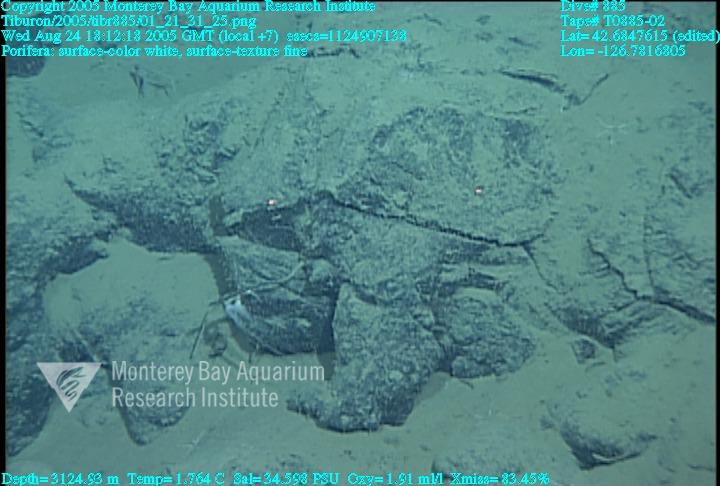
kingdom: Animalia
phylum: Porifera
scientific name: Porifera
